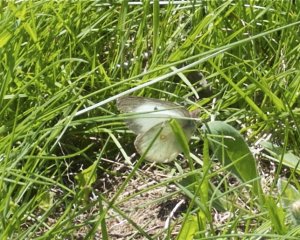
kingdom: Animalia
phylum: Arthropoda
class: Insecta
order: Lepidoptera
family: Pieridae
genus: Pieris
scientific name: Pieris rapae
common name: Cabbage White
